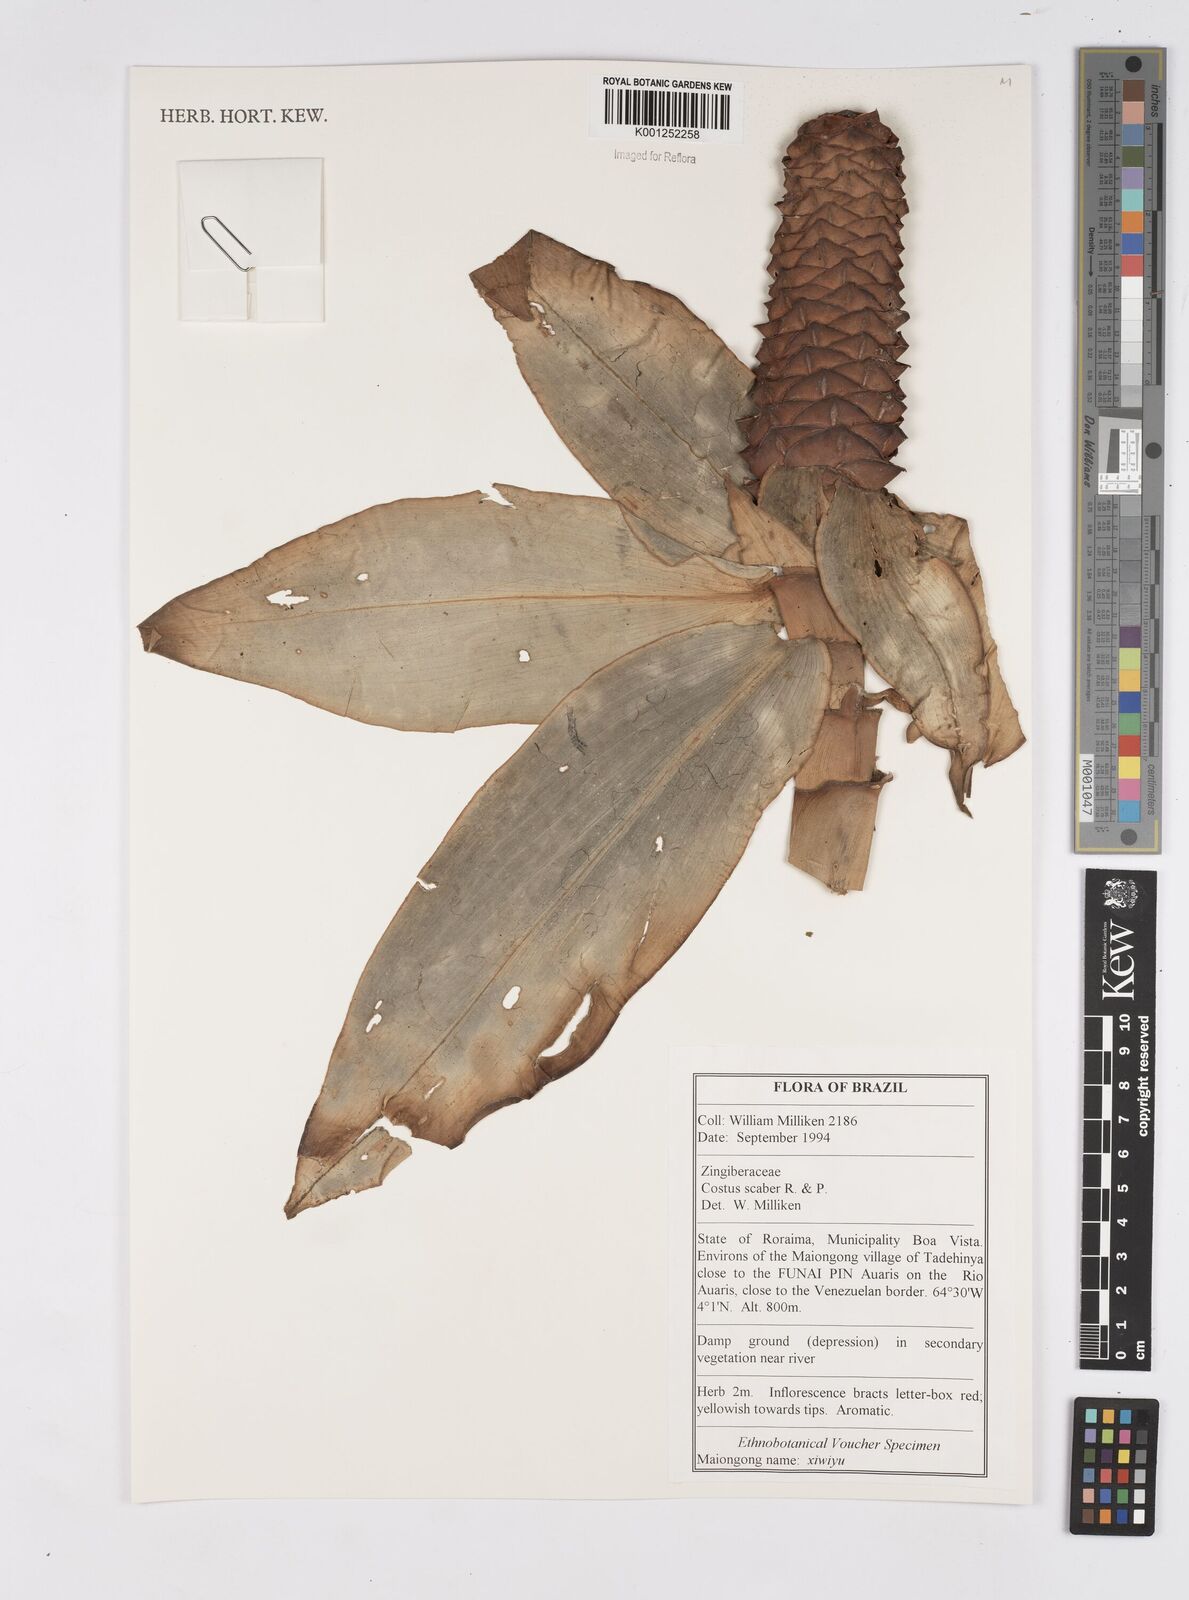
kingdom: Plantae
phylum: Tracheophyta
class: Liliopsida
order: Zingiberales
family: Costaceae
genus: Costus
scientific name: Costus scaber
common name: Spiral head ginger
